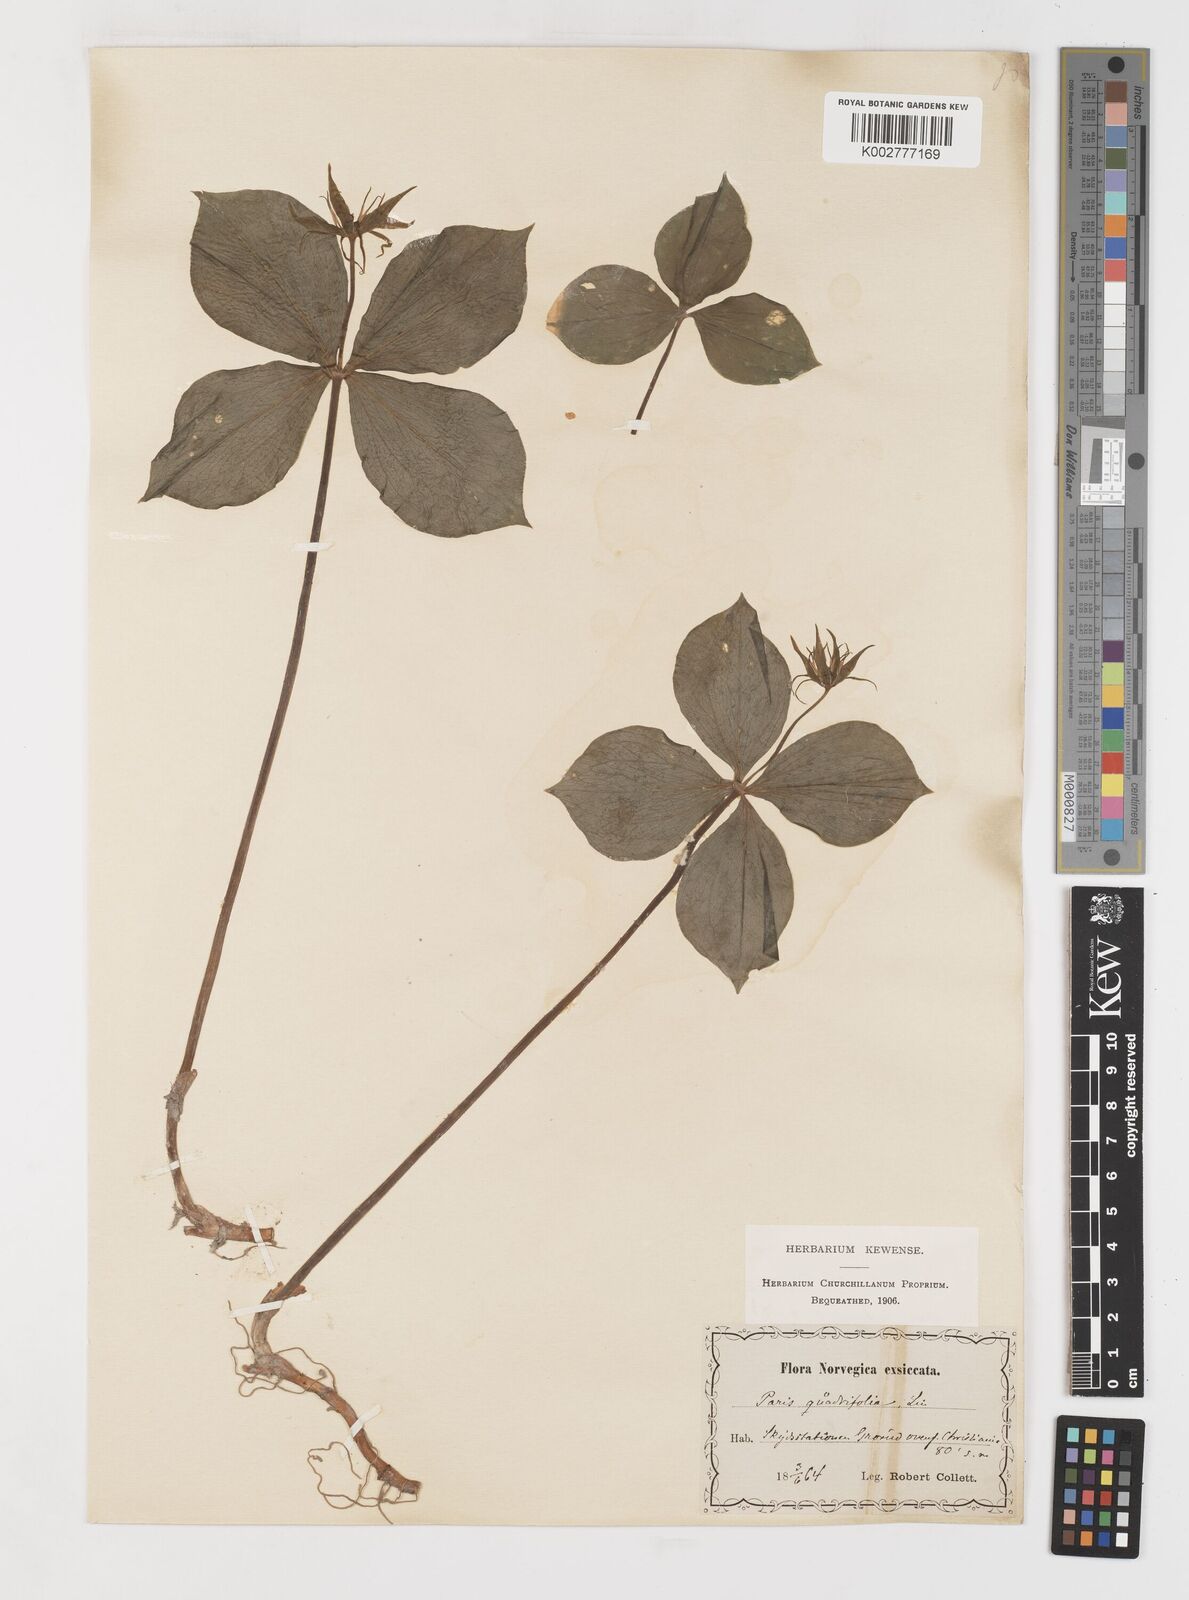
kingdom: Plantae
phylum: Tracheophyta
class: Liliopsida
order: Liliales
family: Melanthiaceae
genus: Paris
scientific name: Paris quadrifolia
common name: Herb-paris
